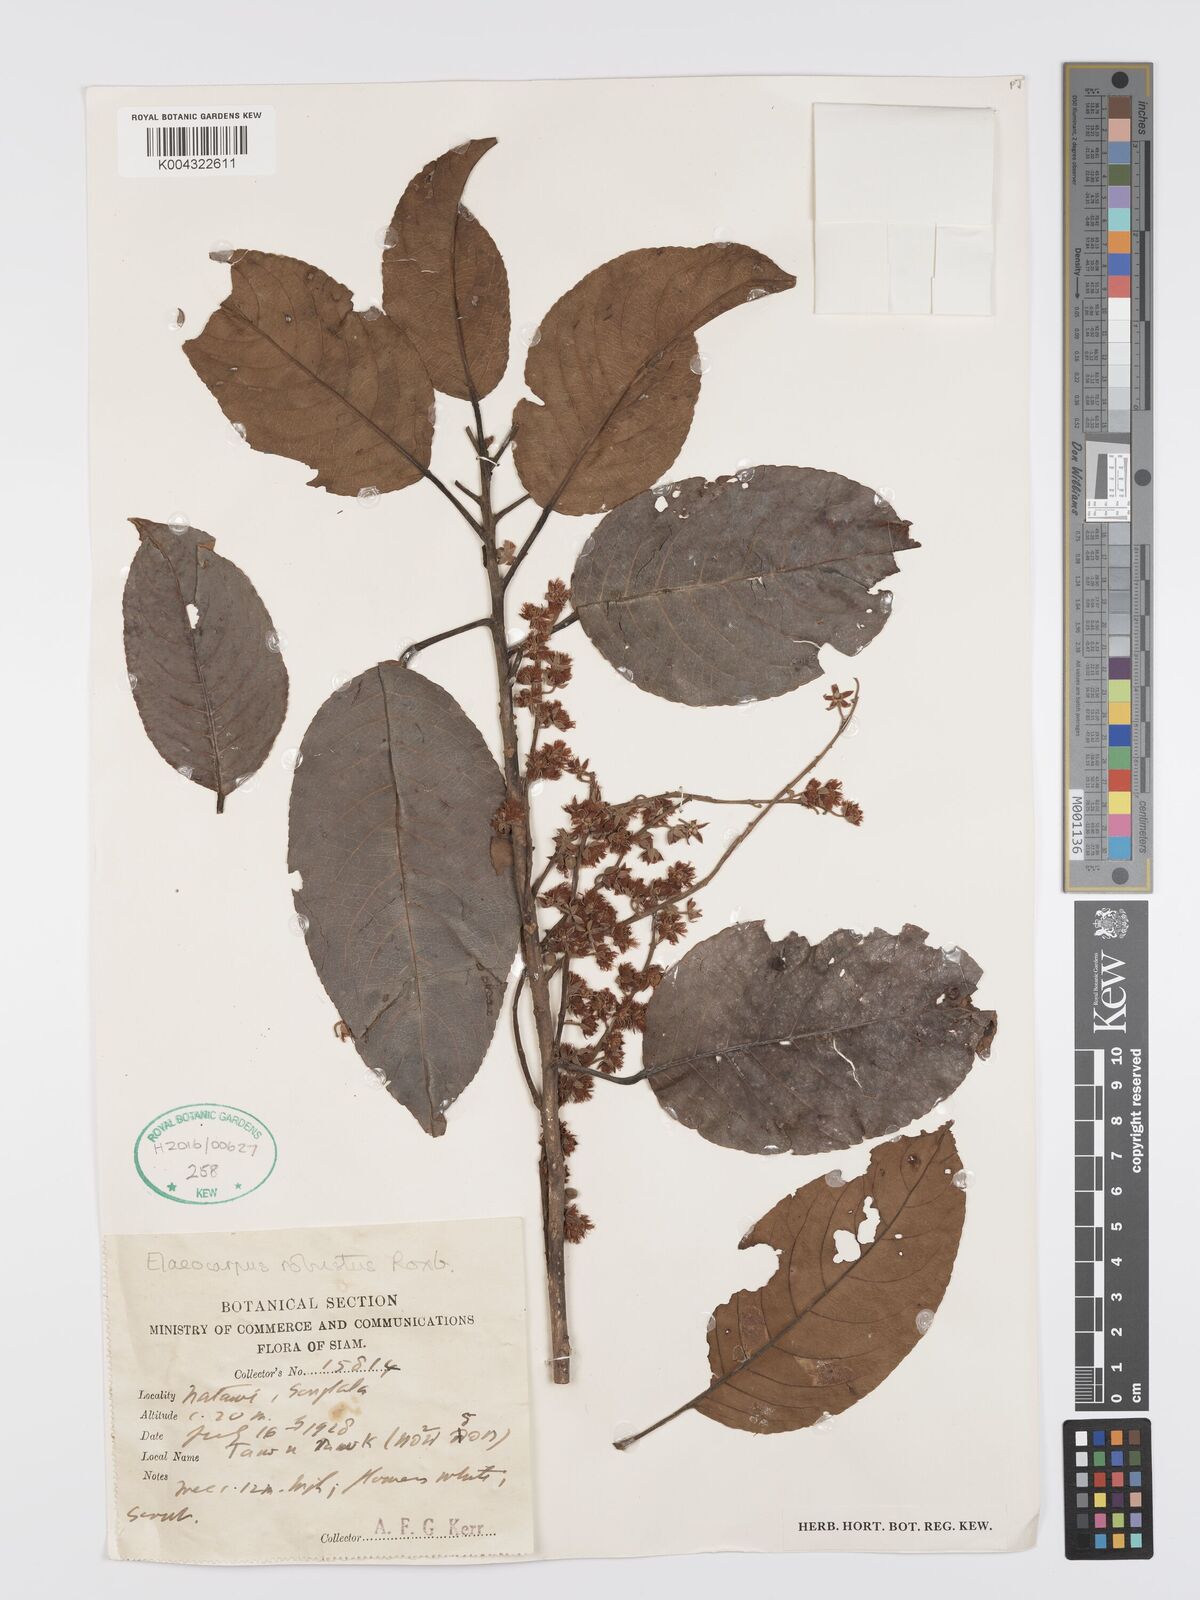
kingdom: Plantae
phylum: Tracheophyta
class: Magnoliopsida
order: Oxalidales
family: Elaeocarpaceae
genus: Elaeocarpus
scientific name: Elaeocarpus robustus
